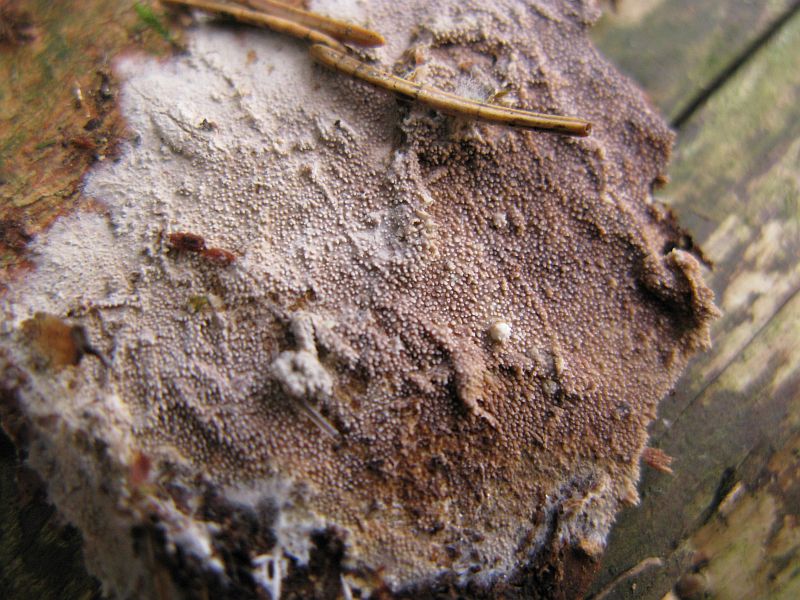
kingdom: Fungi
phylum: Basidiomycota
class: Agaricomycetes
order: Hymenochaetales
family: Rickenellaceae
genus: Resinicium
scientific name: Resinicium bicolor
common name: almindelig vokstand
